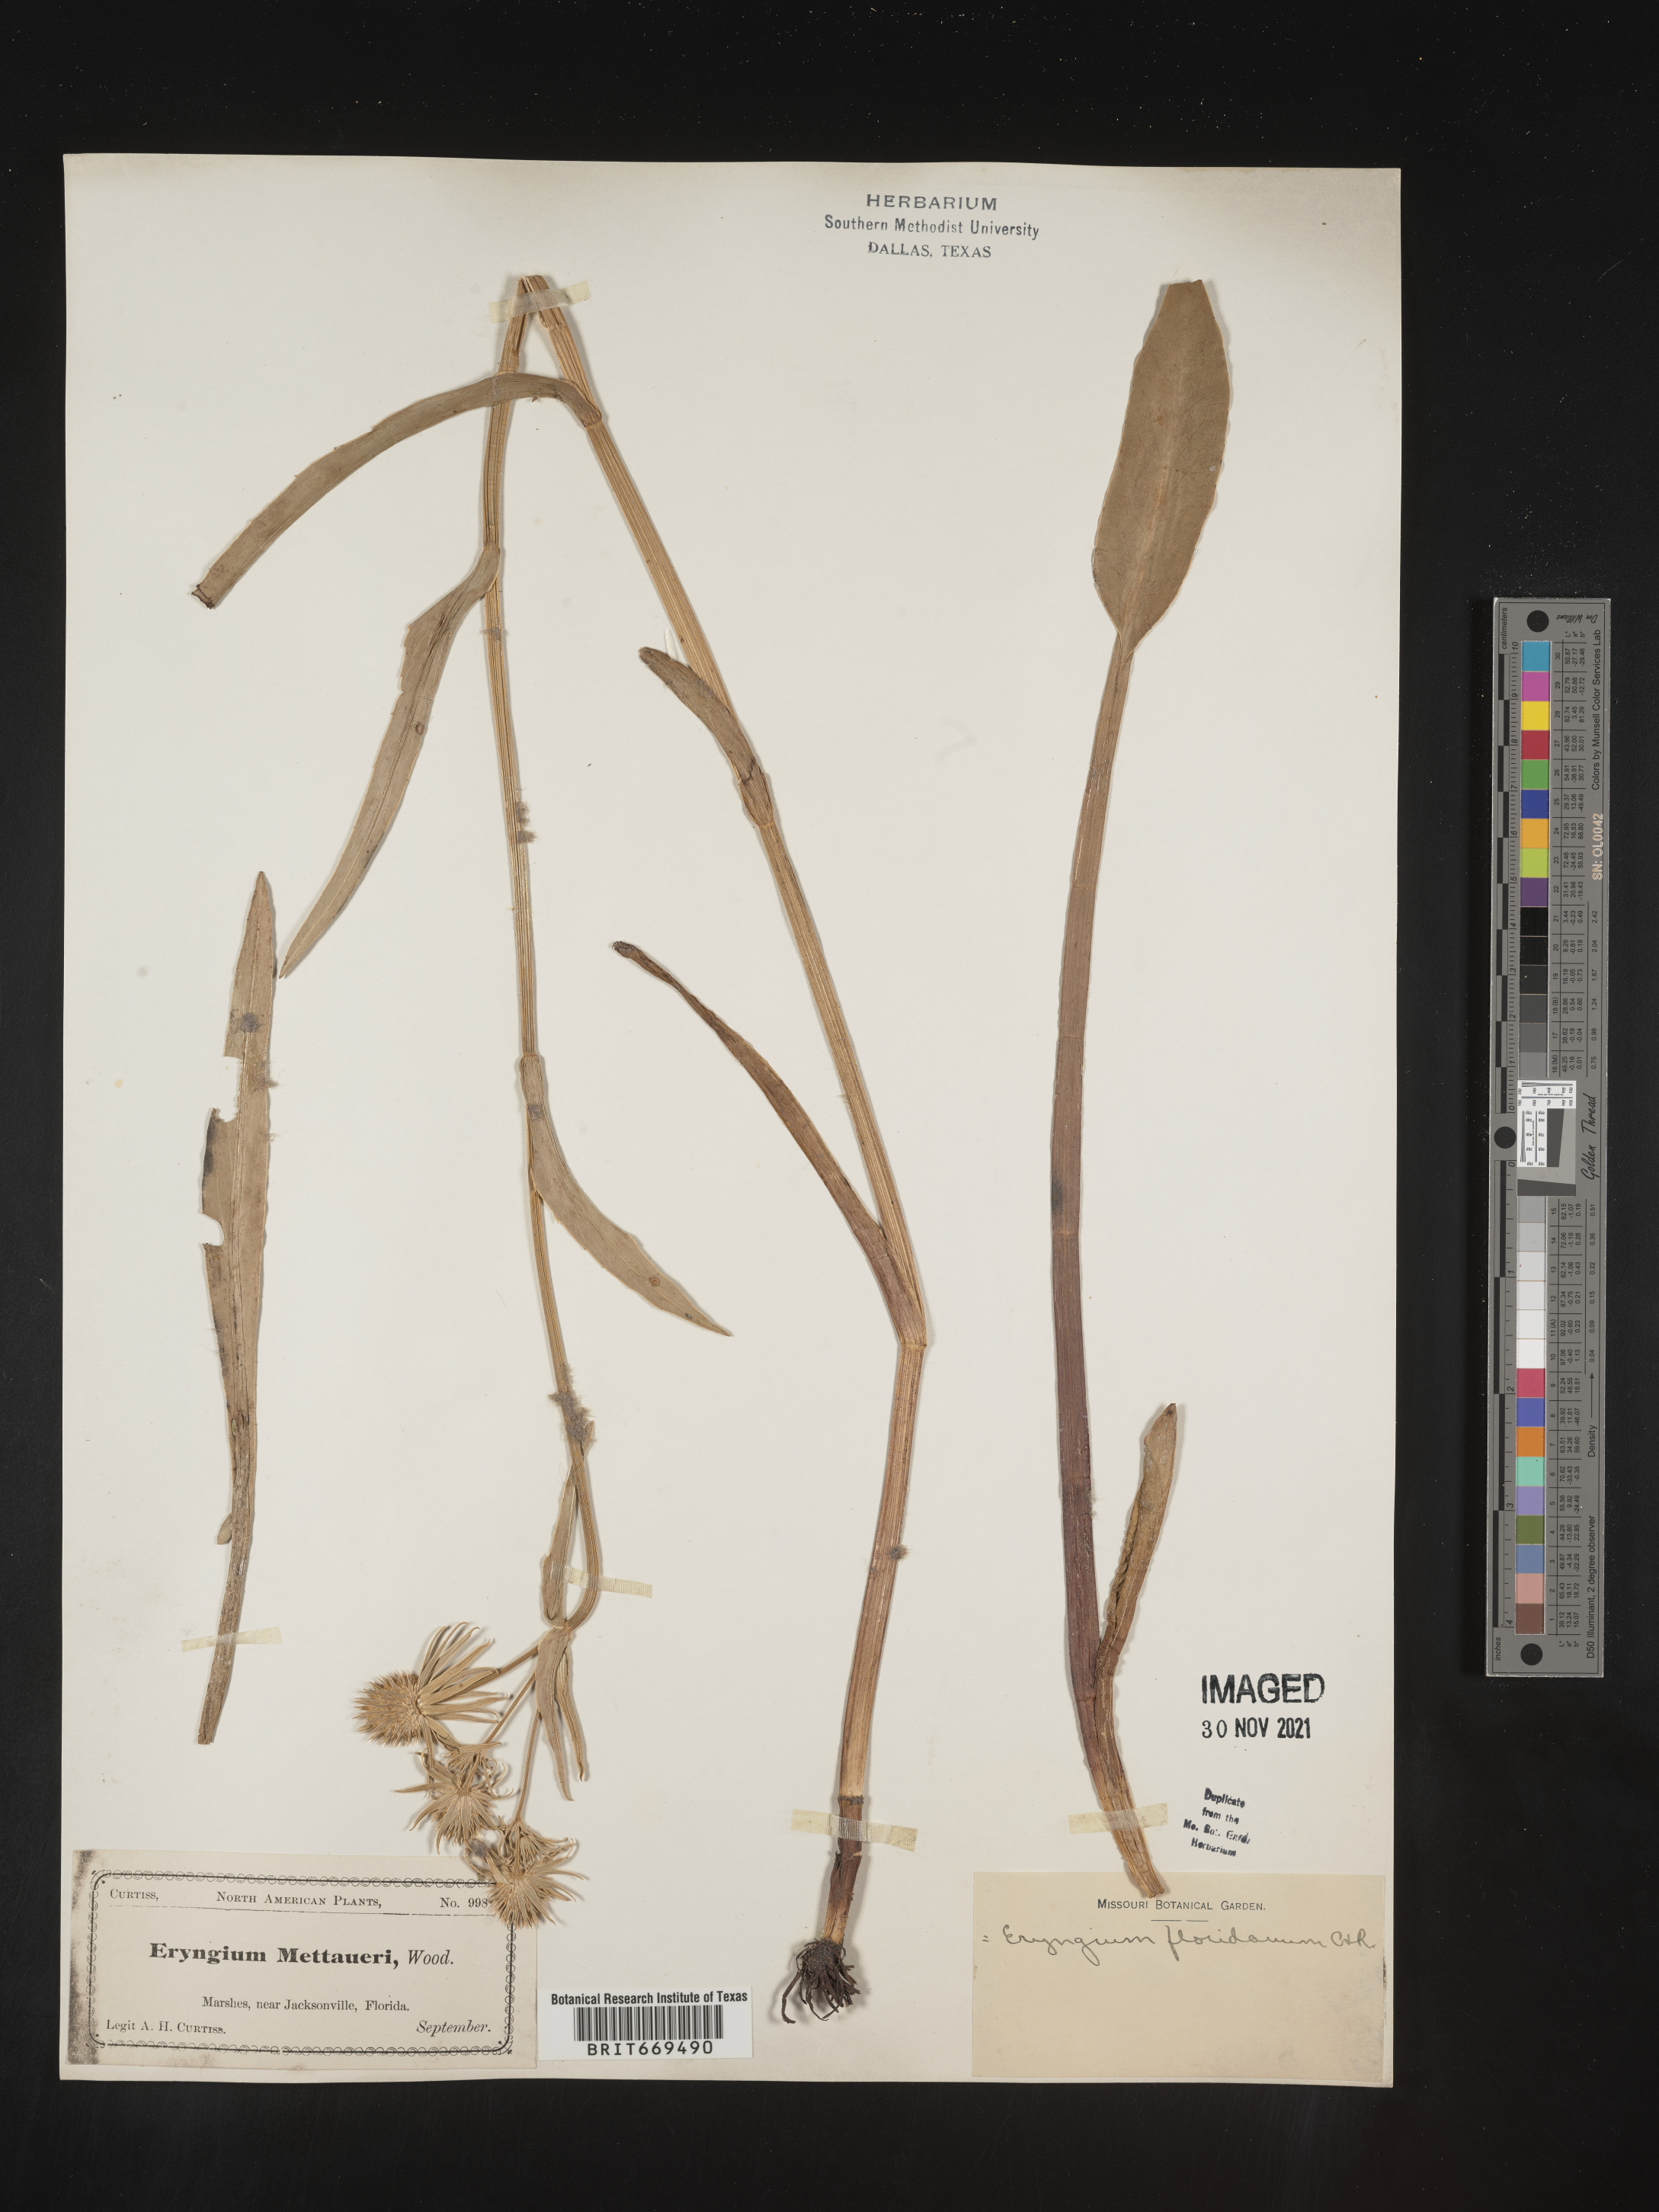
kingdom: Plantae
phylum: Tracheophyta
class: Magnoliopsida
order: Apiales
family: Apiaceae
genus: Eryngium
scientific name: Eryngium
